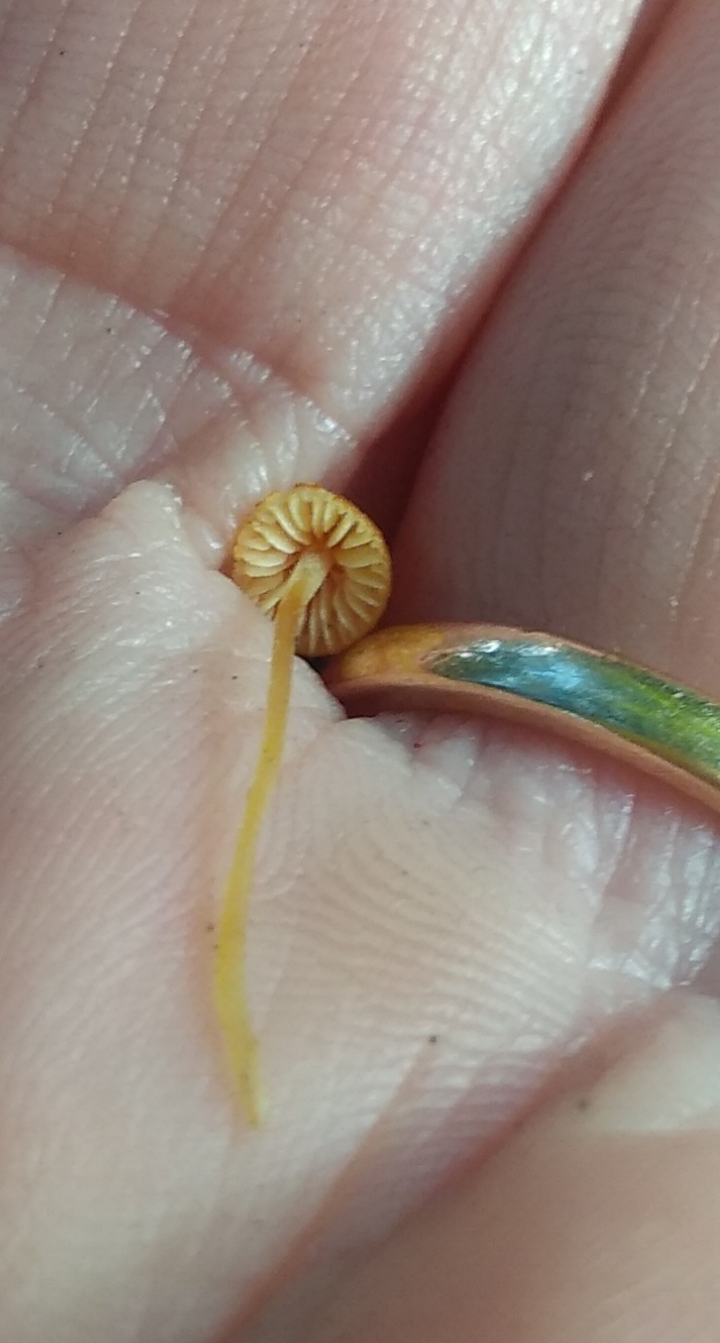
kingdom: Fungi
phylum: Basidiomycota
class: Agaricomycetes
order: Agaricales
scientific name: Agaricales
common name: champignonordenen
